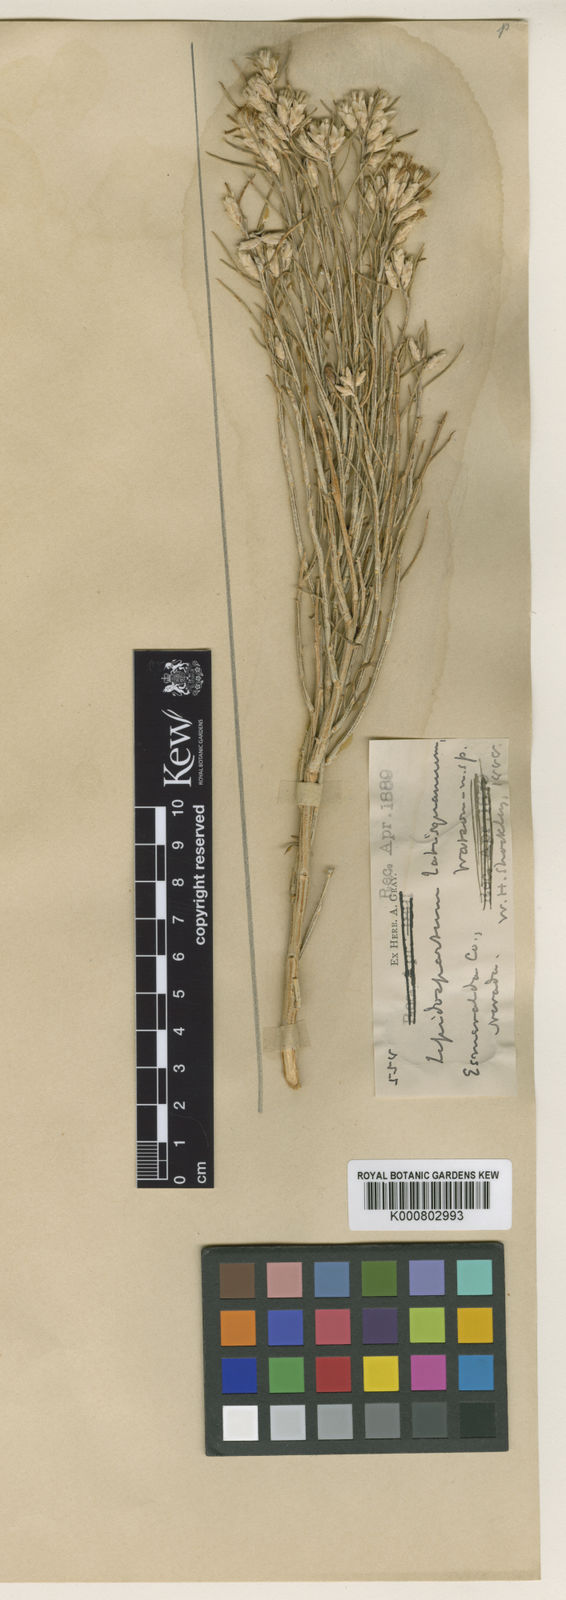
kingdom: Plantae
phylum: Tracheophyta
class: Magnoliopsida
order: Asterales
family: Asteraceae
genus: Lepidospartum
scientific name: Lepidospartum latisquamum
